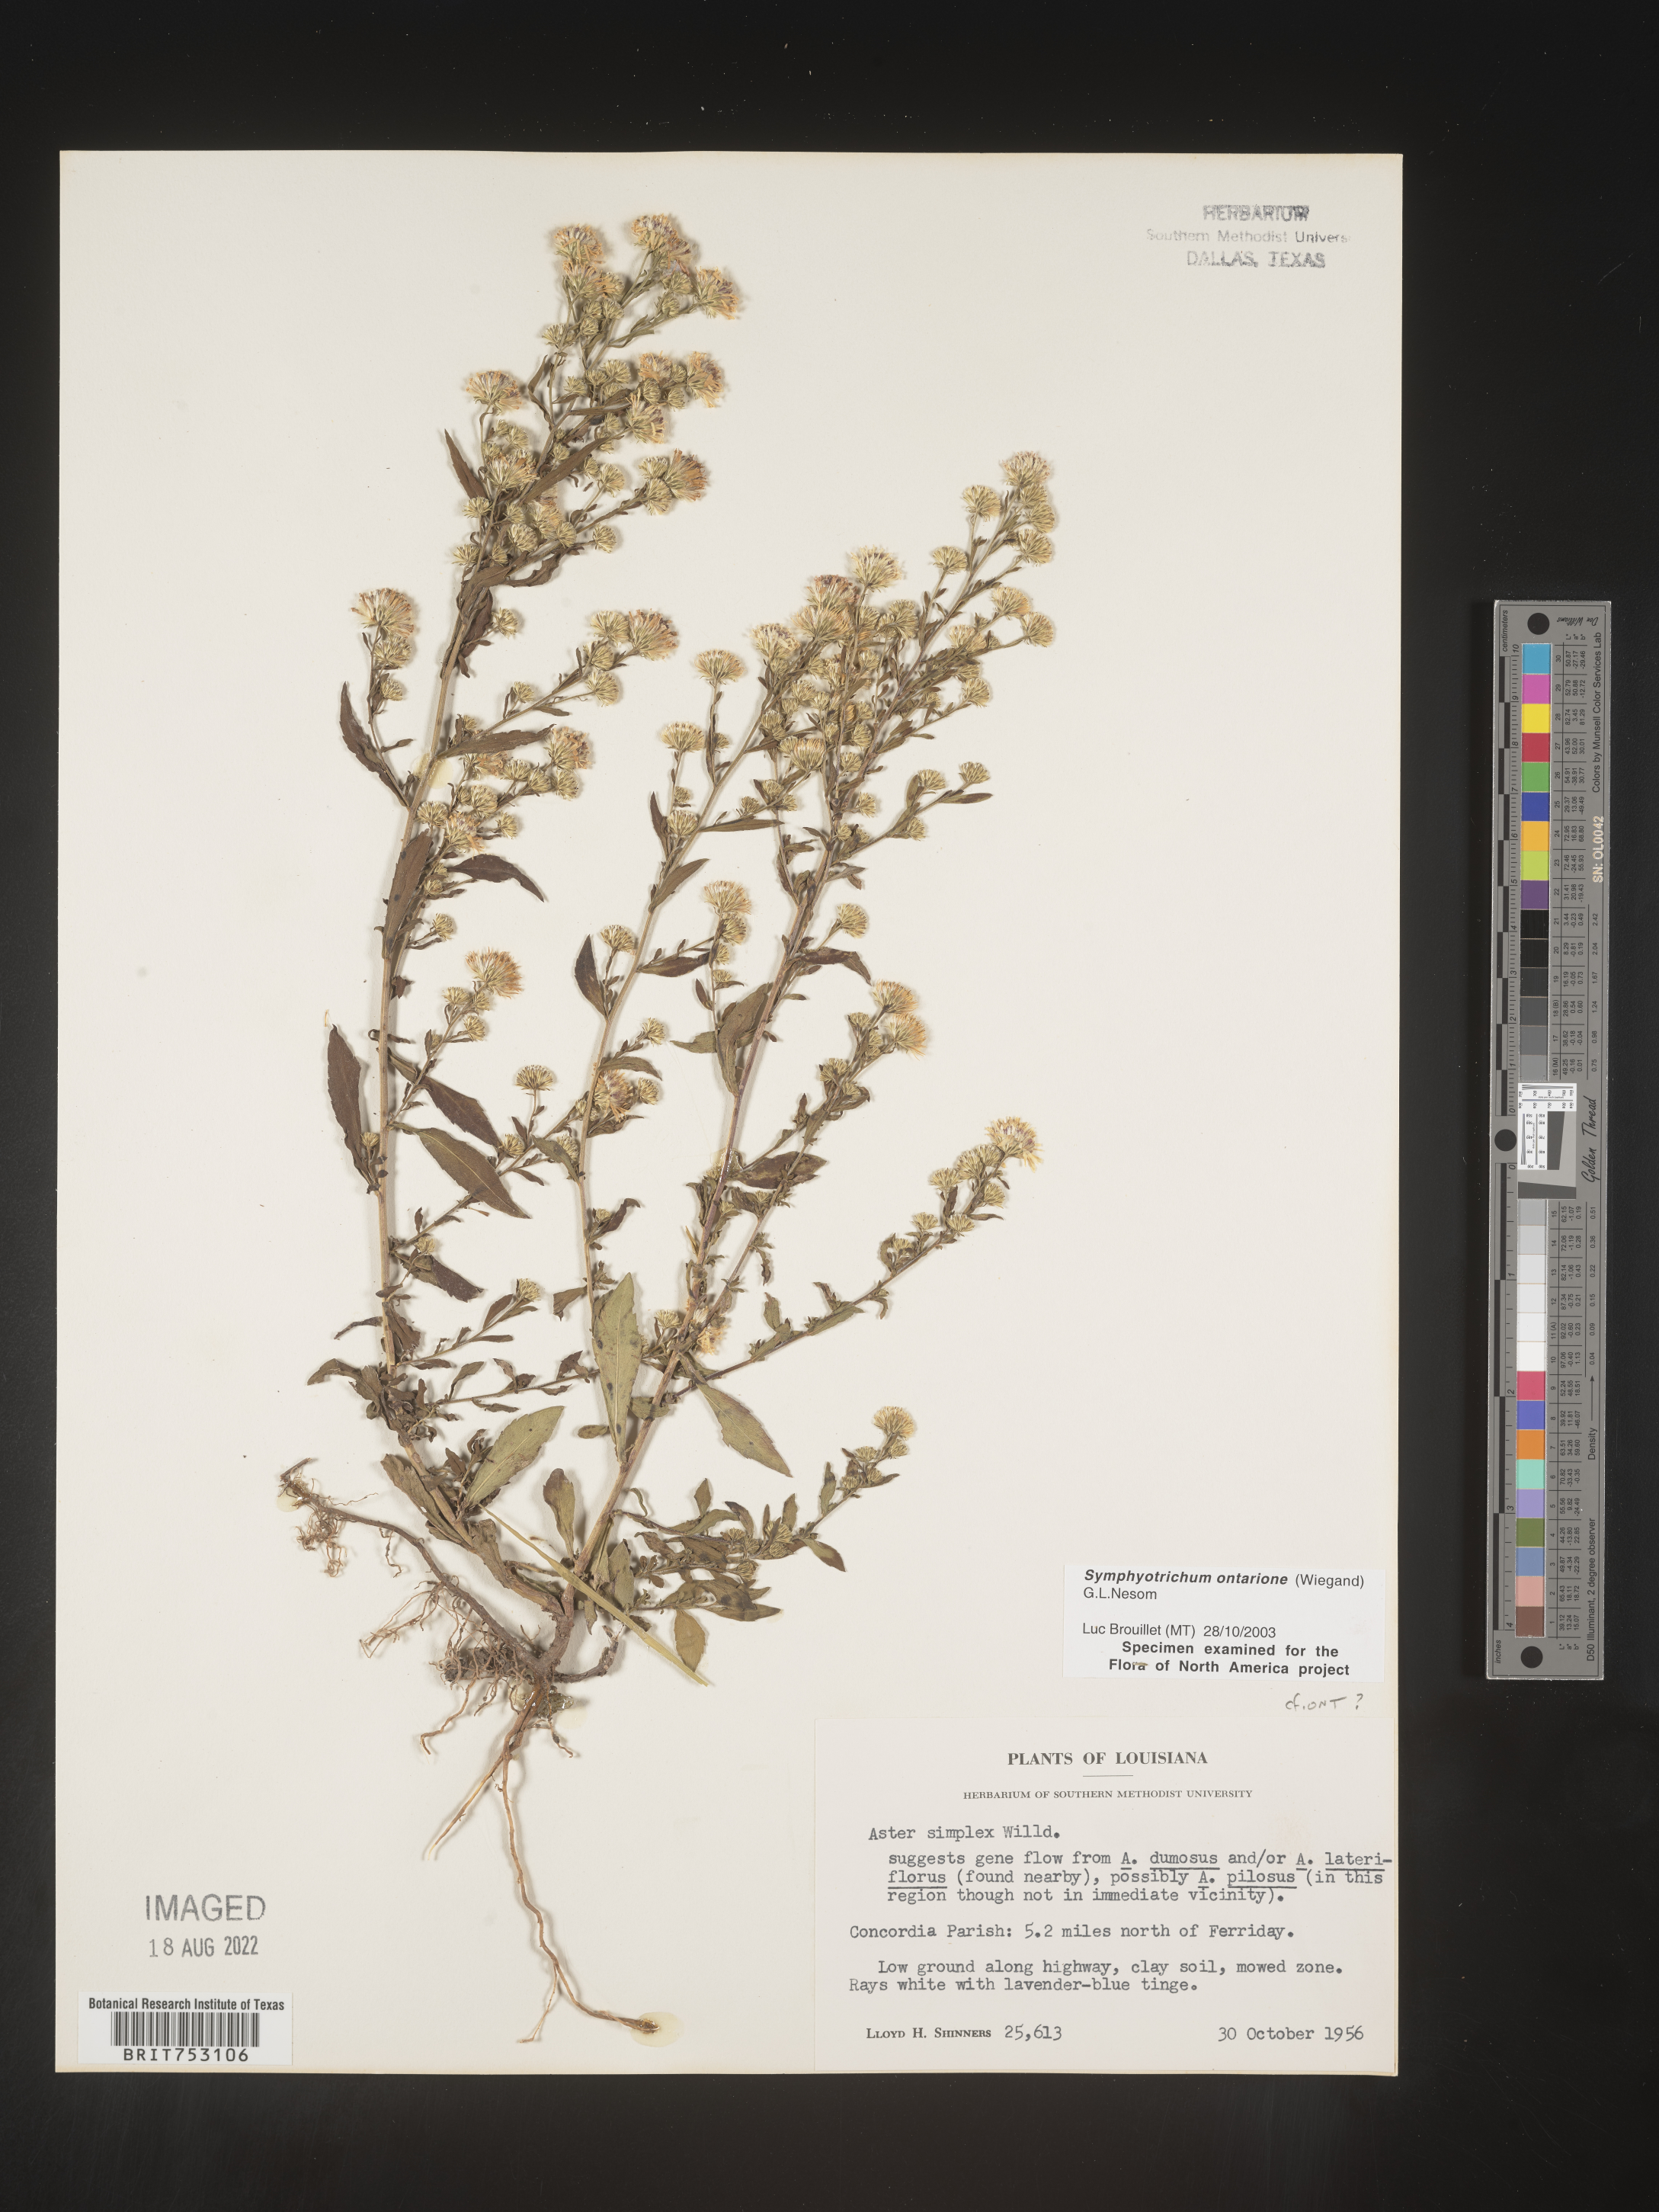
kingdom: Plantae
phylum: Tracheophyta
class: Magnoliopsida
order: Asterales
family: Asteraceae
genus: Symphyotrichum
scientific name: Symphyotrichum ontarionis
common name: Bottomland aster
